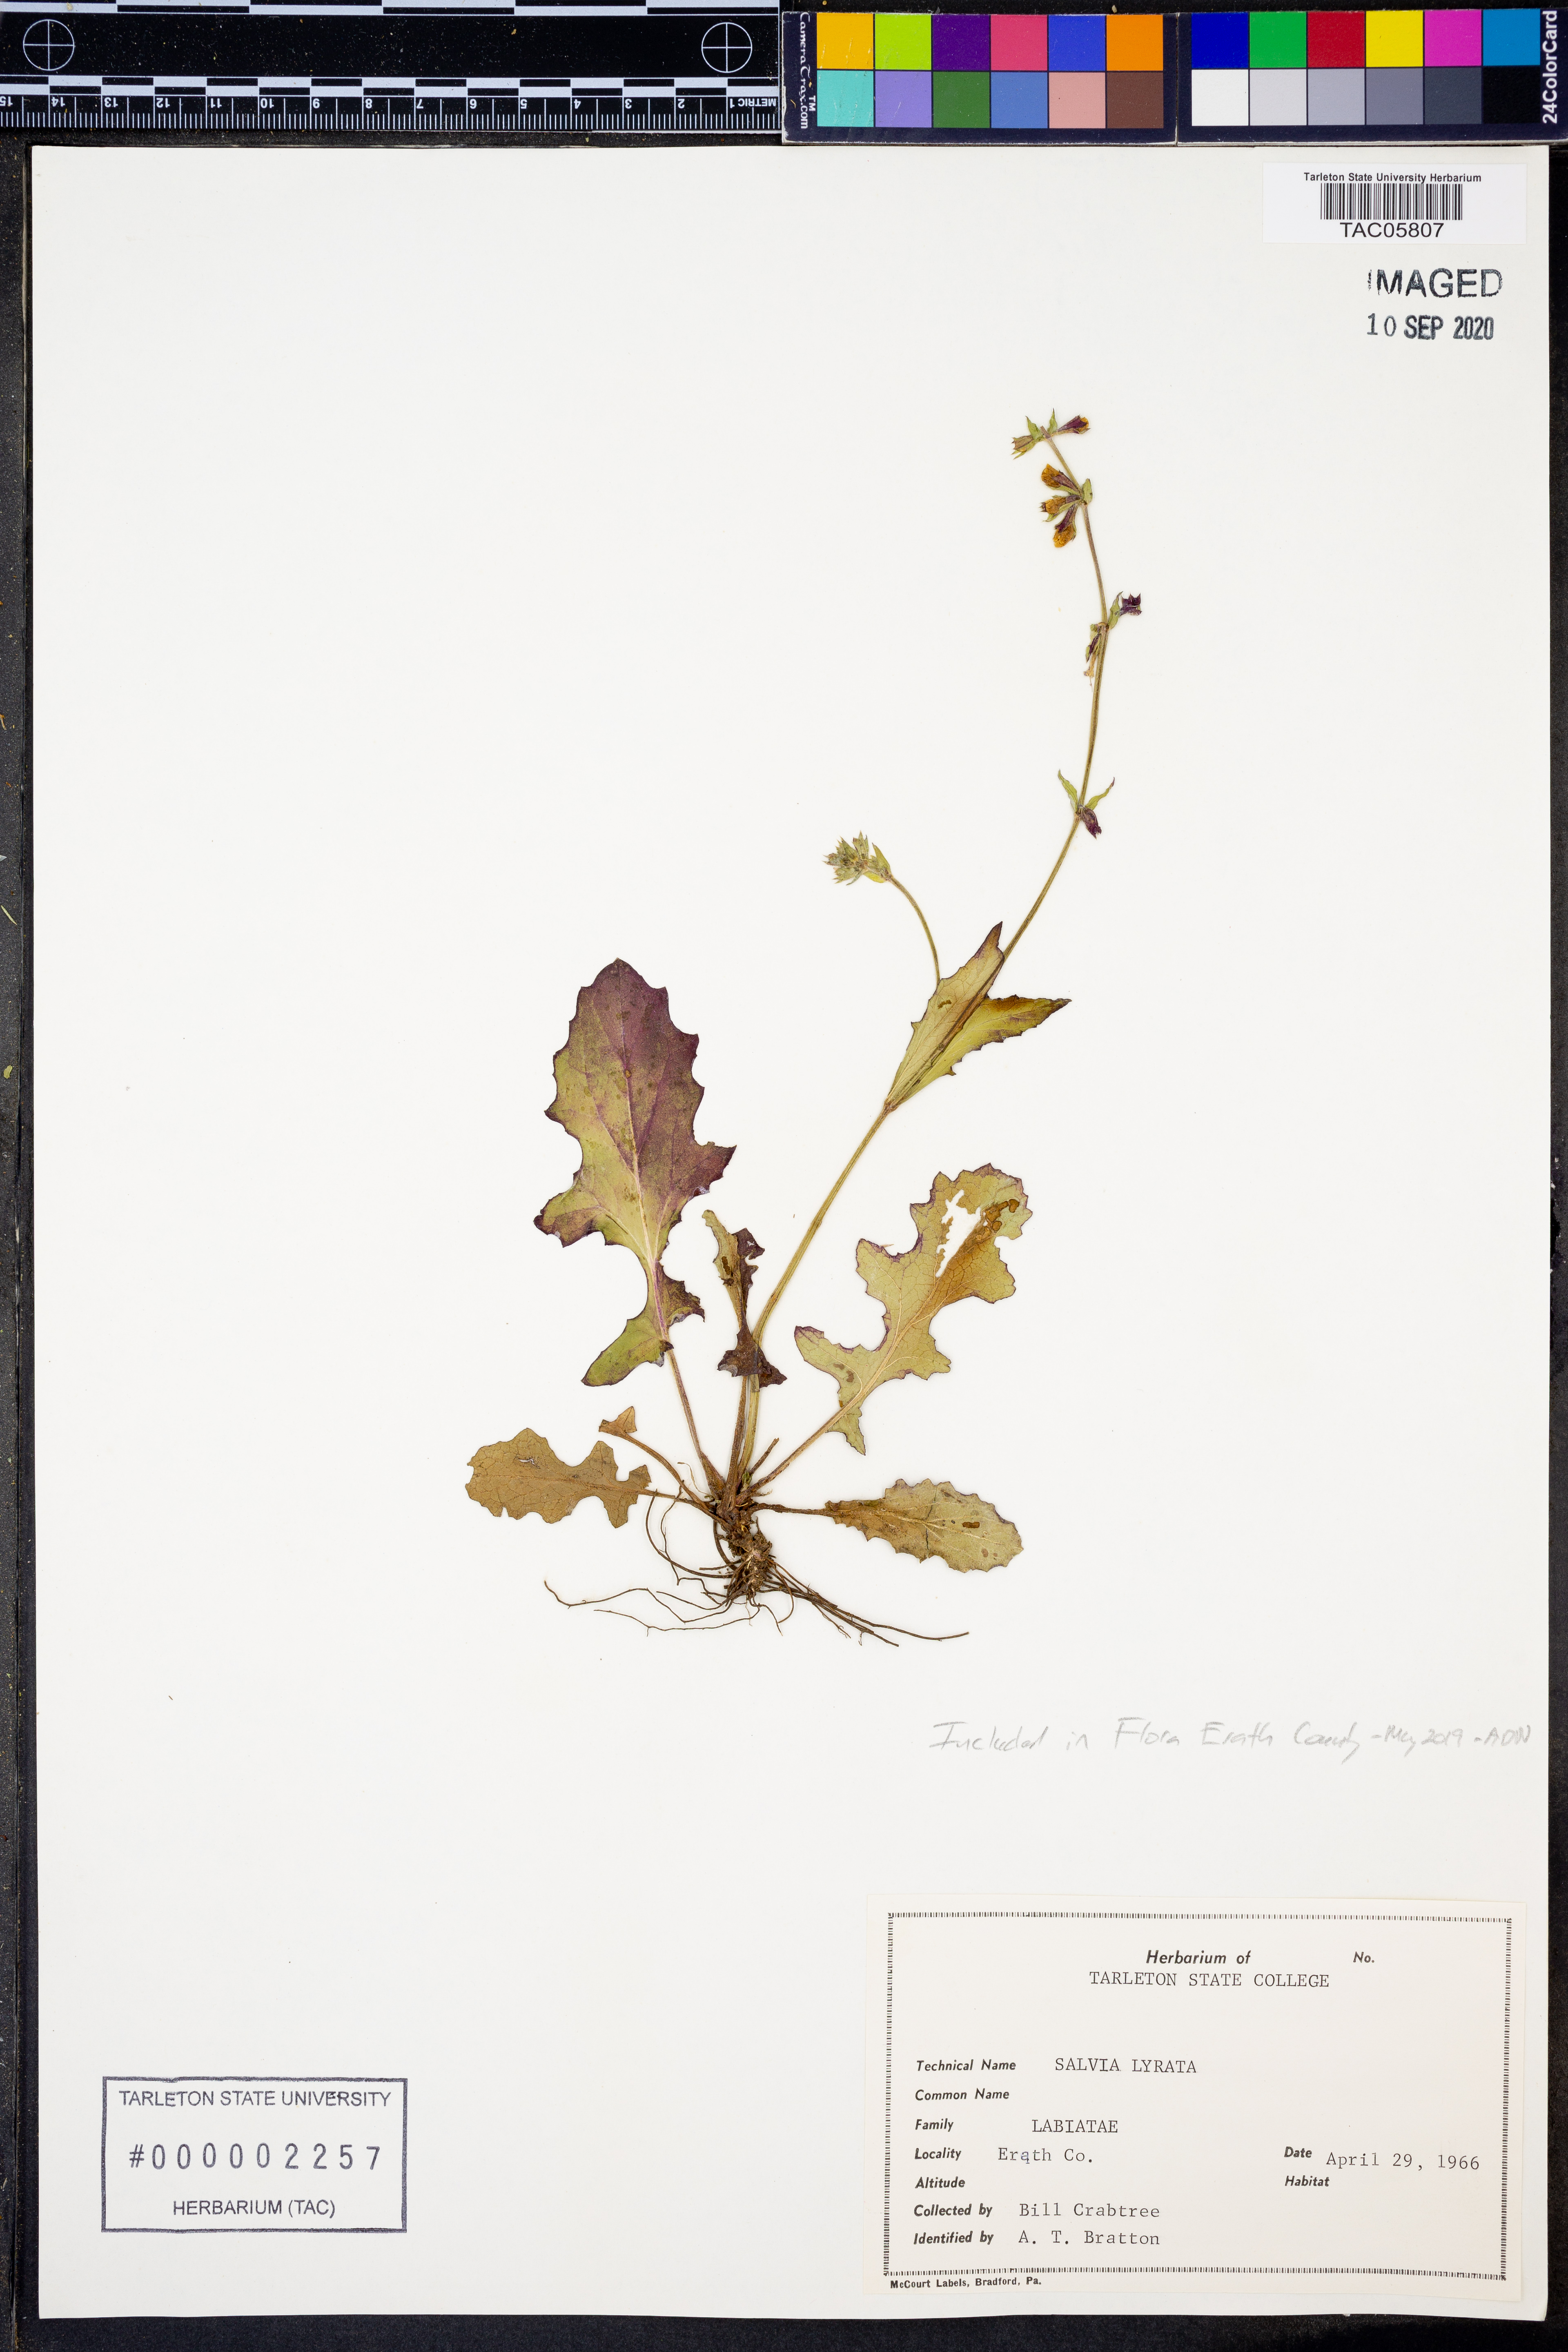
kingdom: Plantae
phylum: Tracheophyta
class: Magnoliopsida
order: Lamiales
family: Lamiaceae
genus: Salvia
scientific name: Salvia lyrata
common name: Cancerweed
